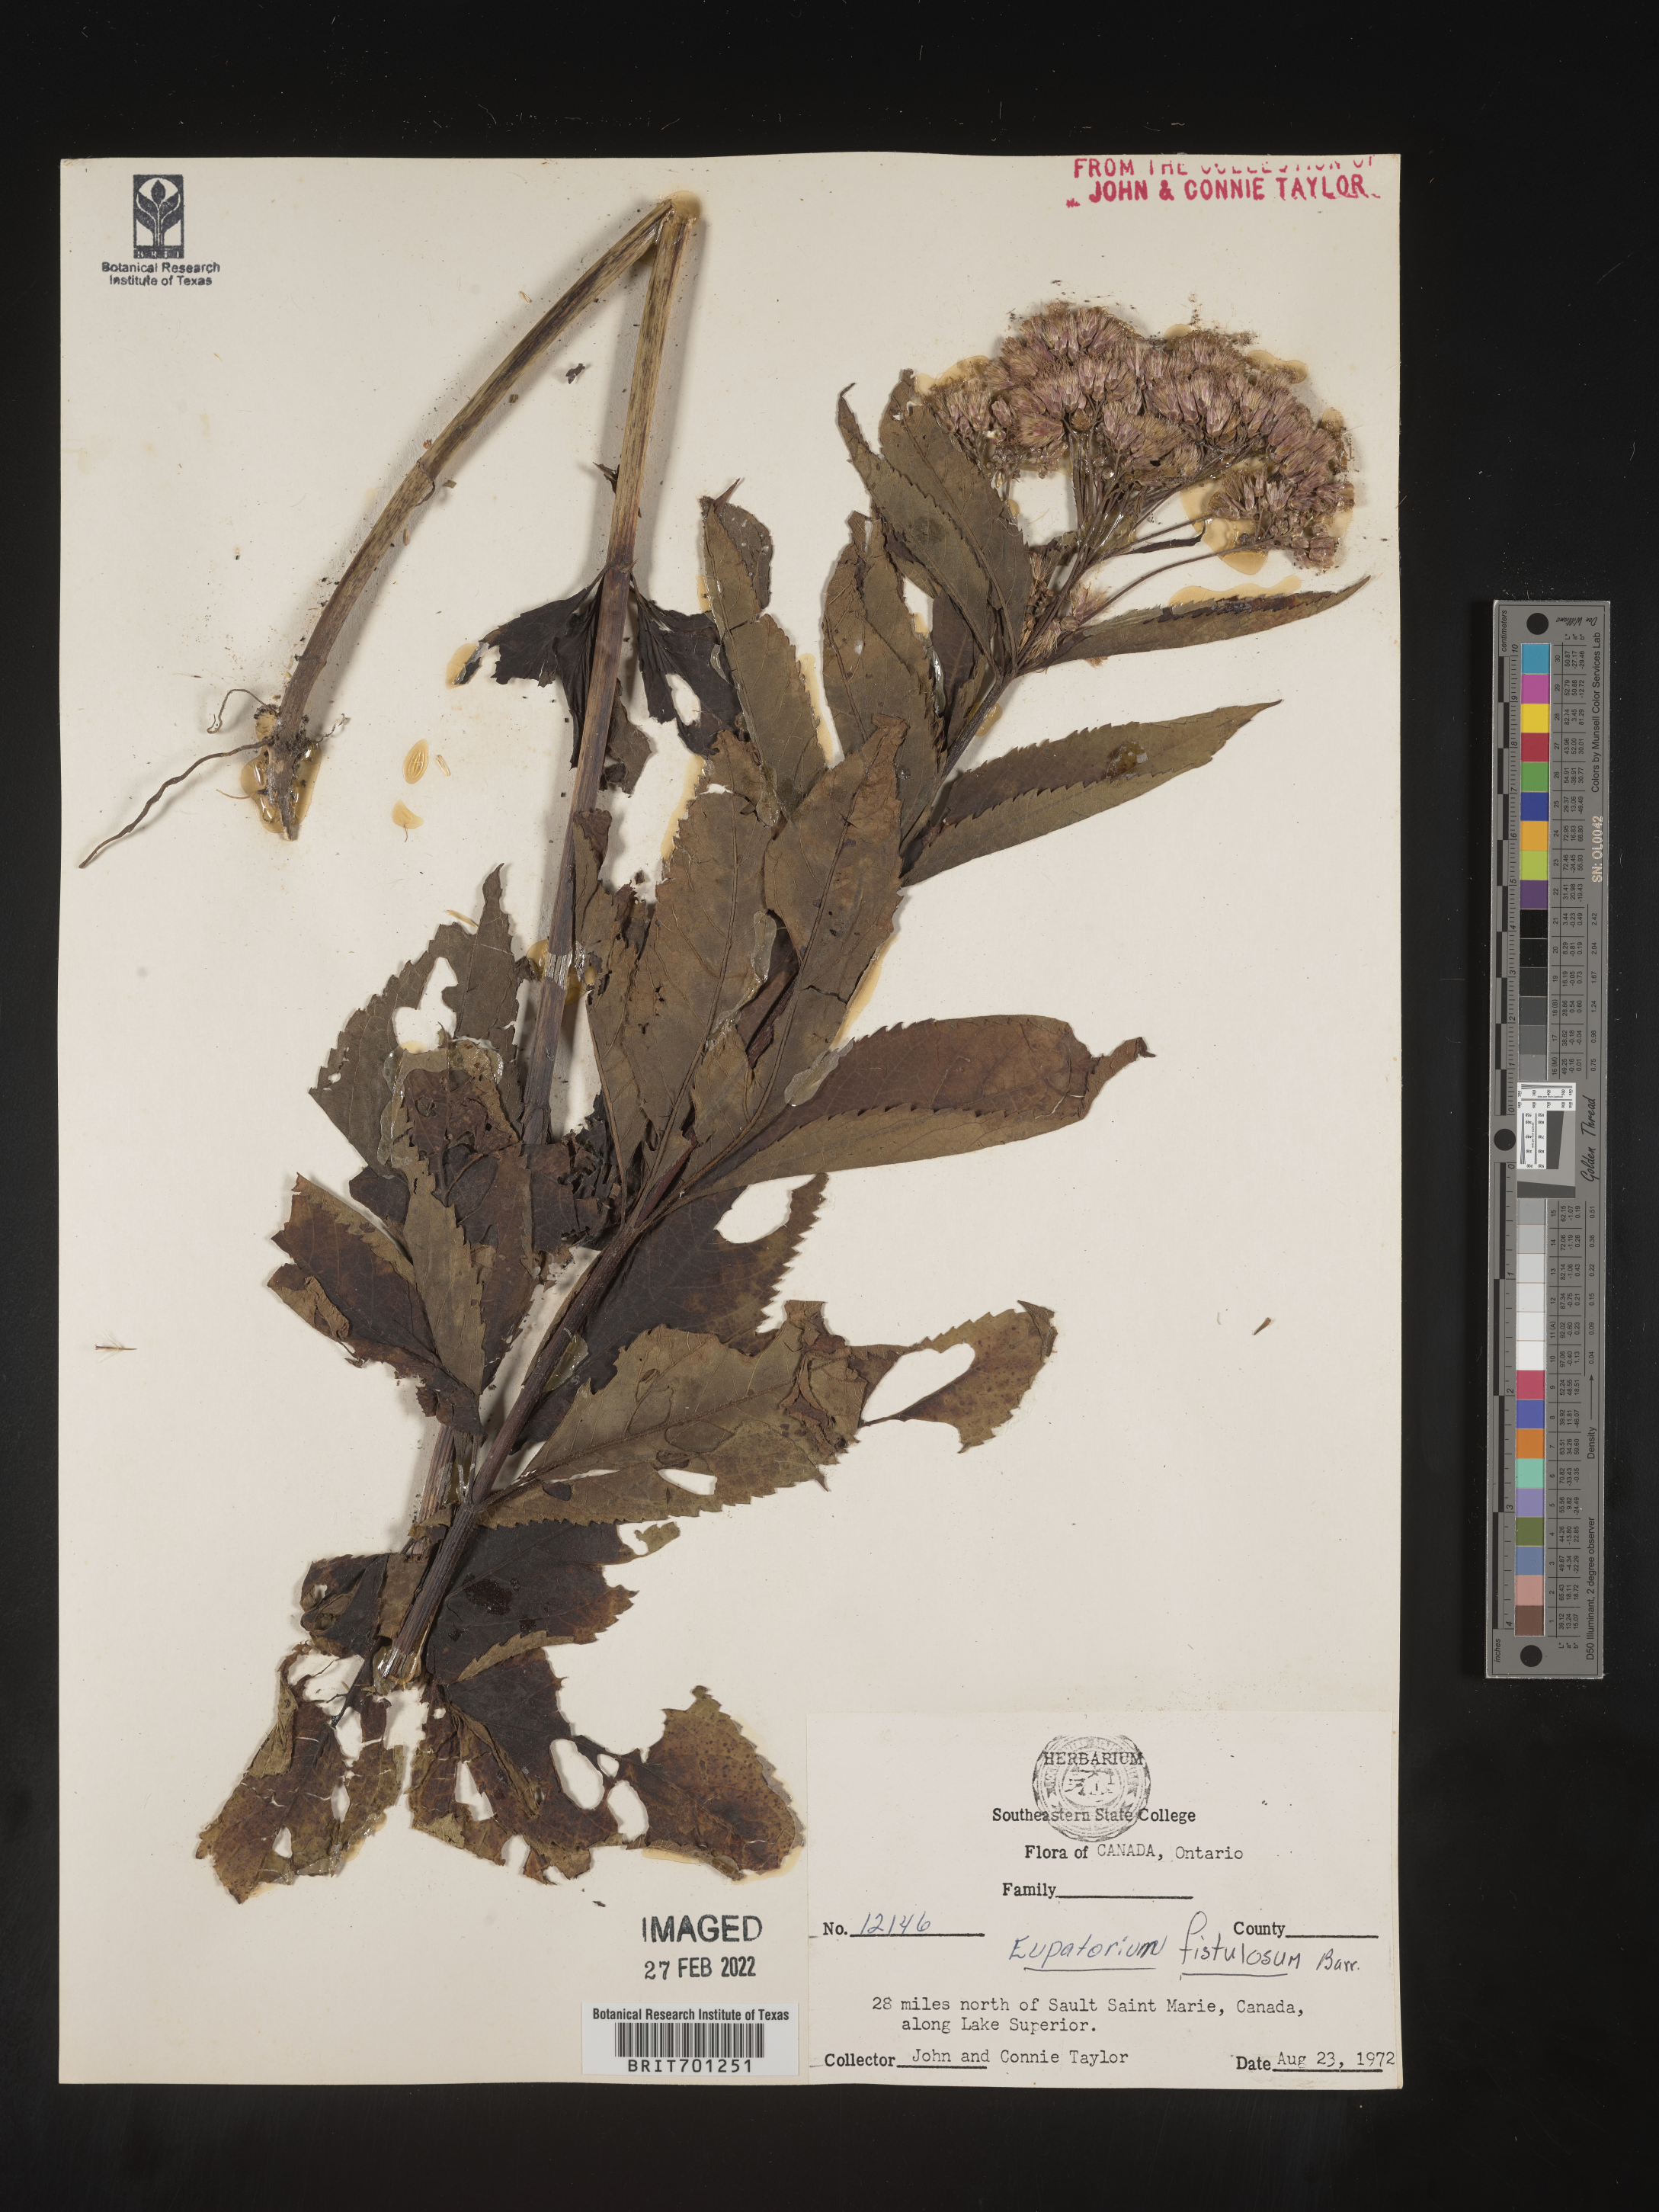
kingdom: Plantae
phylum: Tracheophyta
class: Magnoliopsida
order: Asterales
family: Asteraceae
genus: Eutrochium
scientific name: Eutrochium fistulosum
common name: Trumpetweed
